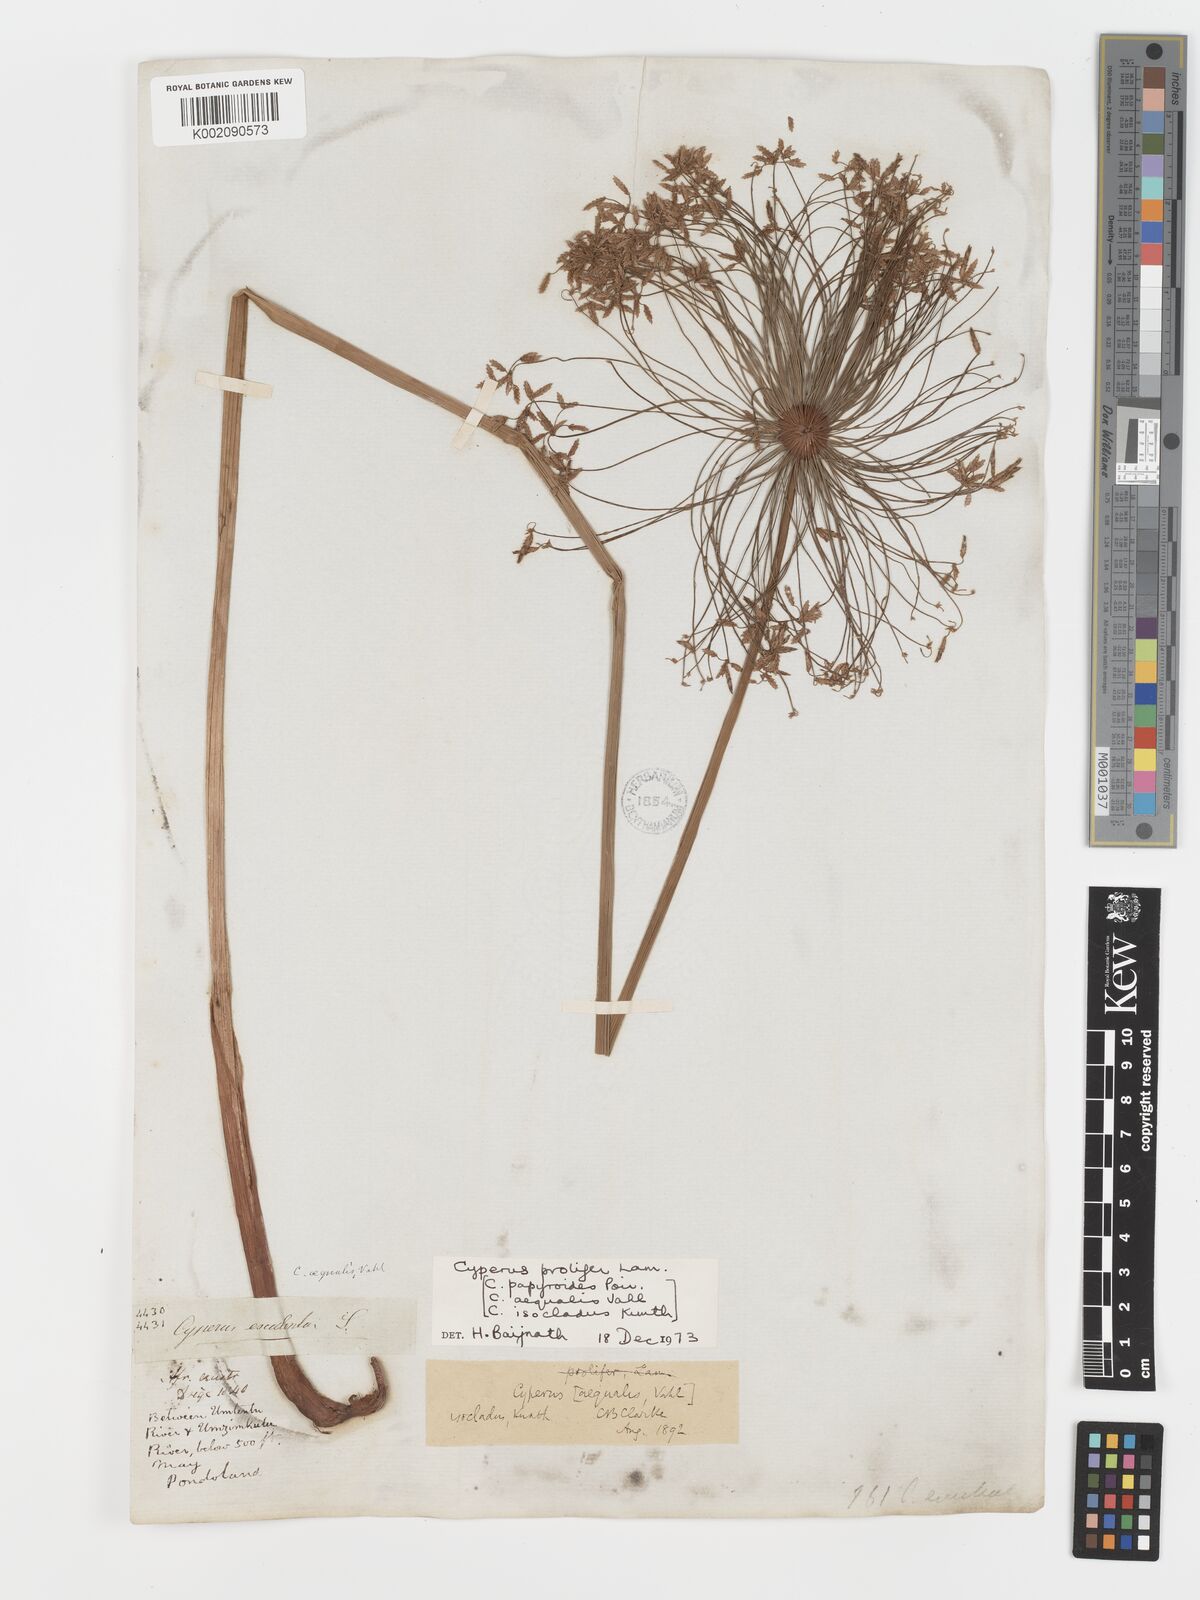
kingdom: Plantae
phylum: Tracheophyta
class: Liliopsida
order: Poales
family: Cyperaceae
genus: Cyperus
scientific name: Cyperus prolifer
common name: Miniature flatsedge
